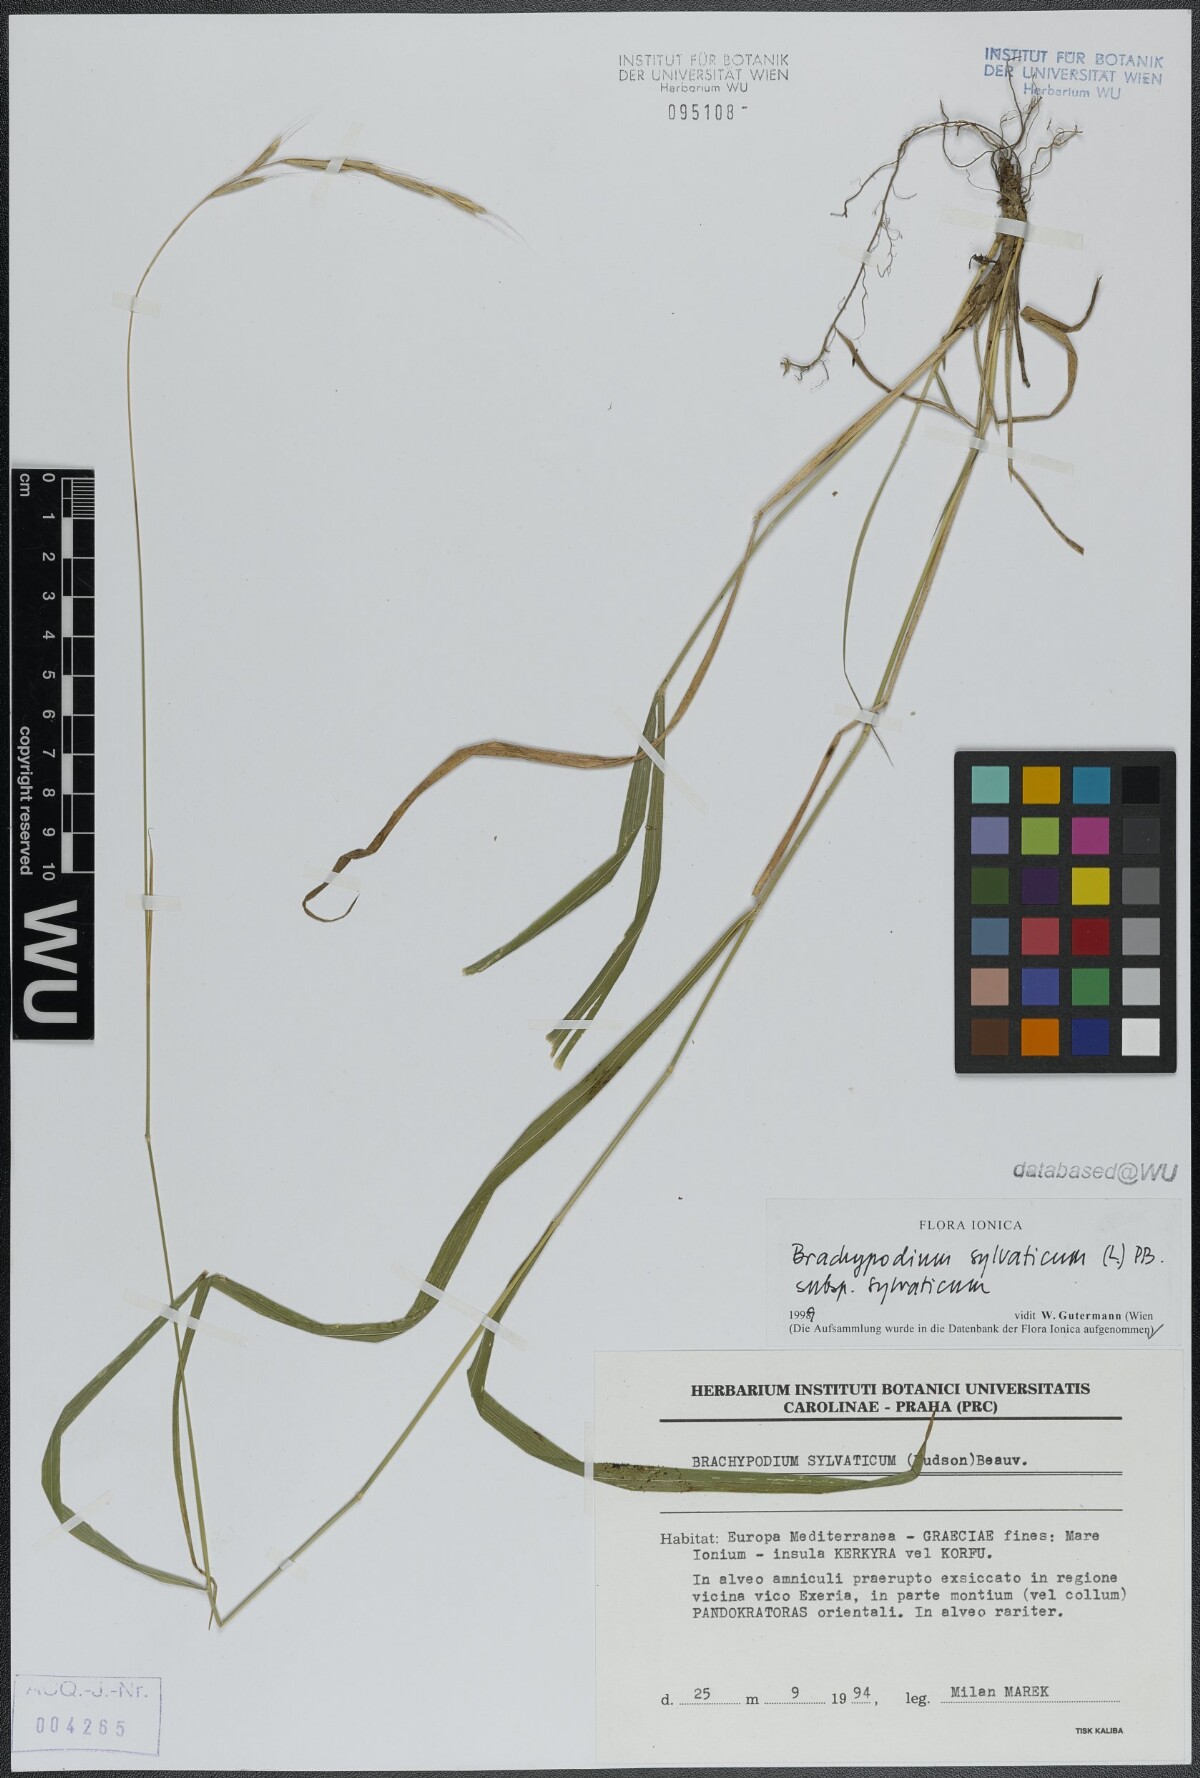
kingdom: Plantae
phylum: Tracheophyta
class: Liliopsida
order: Poales
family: Poaceae
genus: Brachypodium
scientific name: Brachypodium sylvaticum
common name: False-brome
